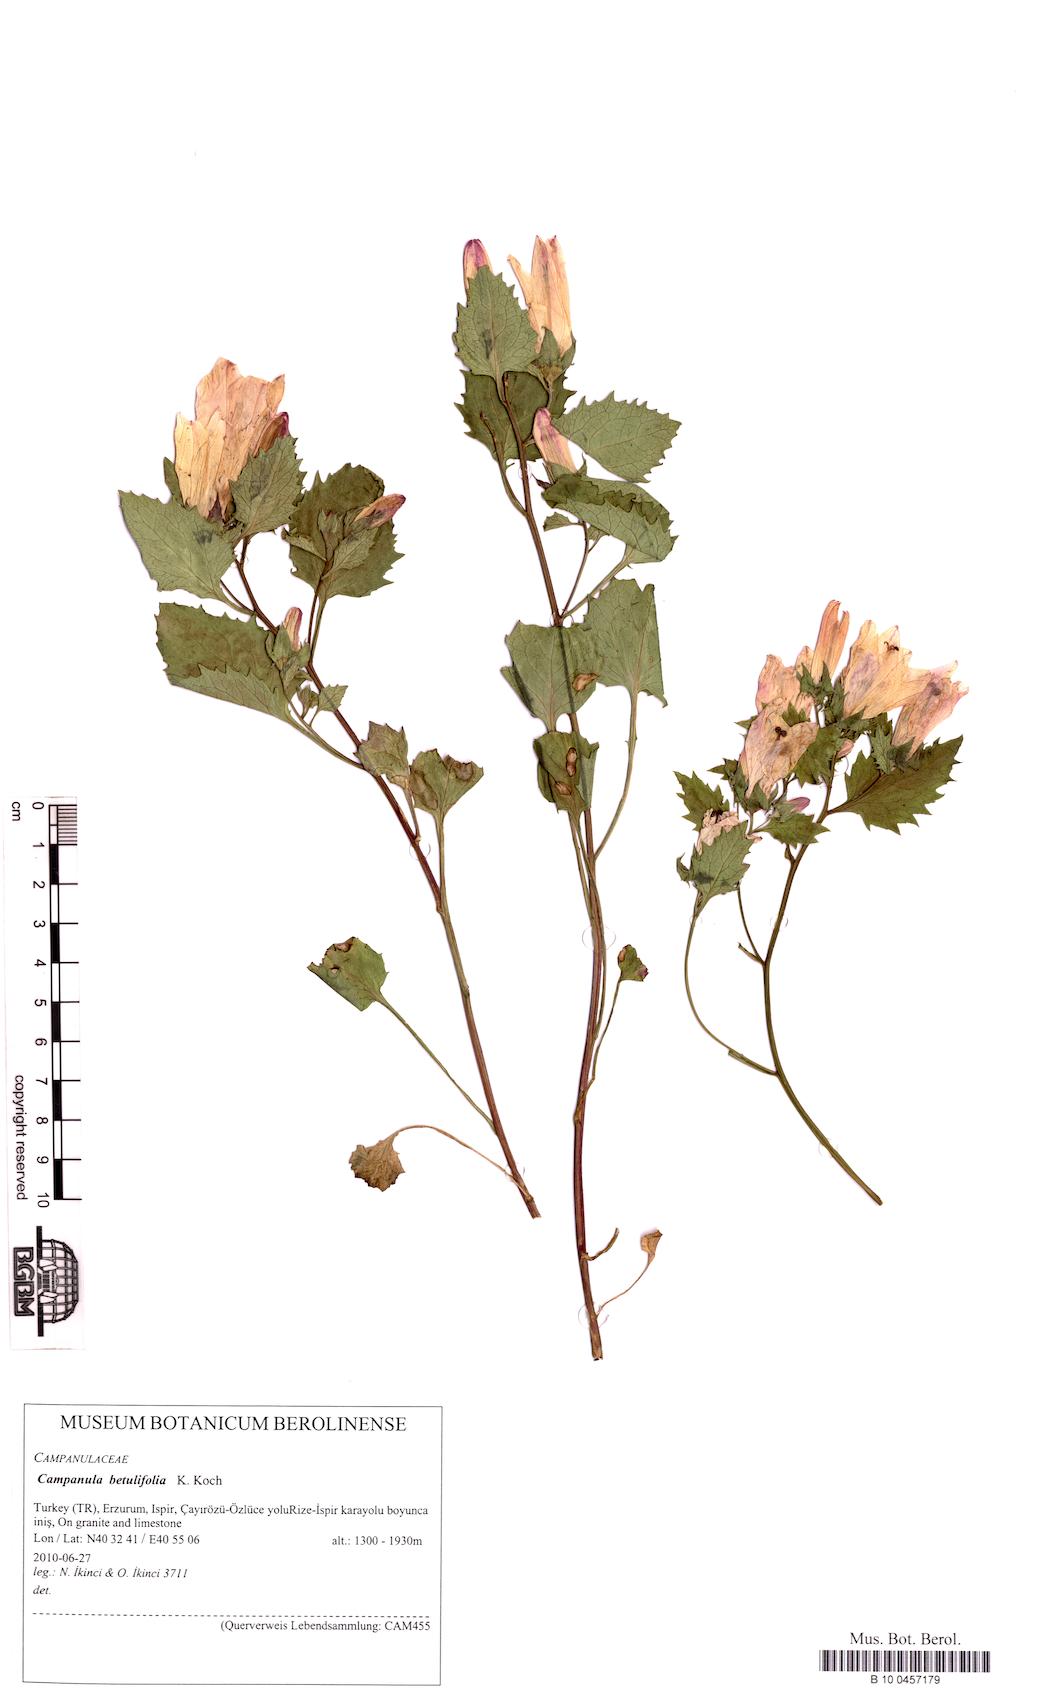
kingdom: Plantae
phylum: Tracheophyta
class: Magnoliopsida
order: Asterales
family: Campanulaceae
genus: Campanula
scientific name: Campanula betulifolia
